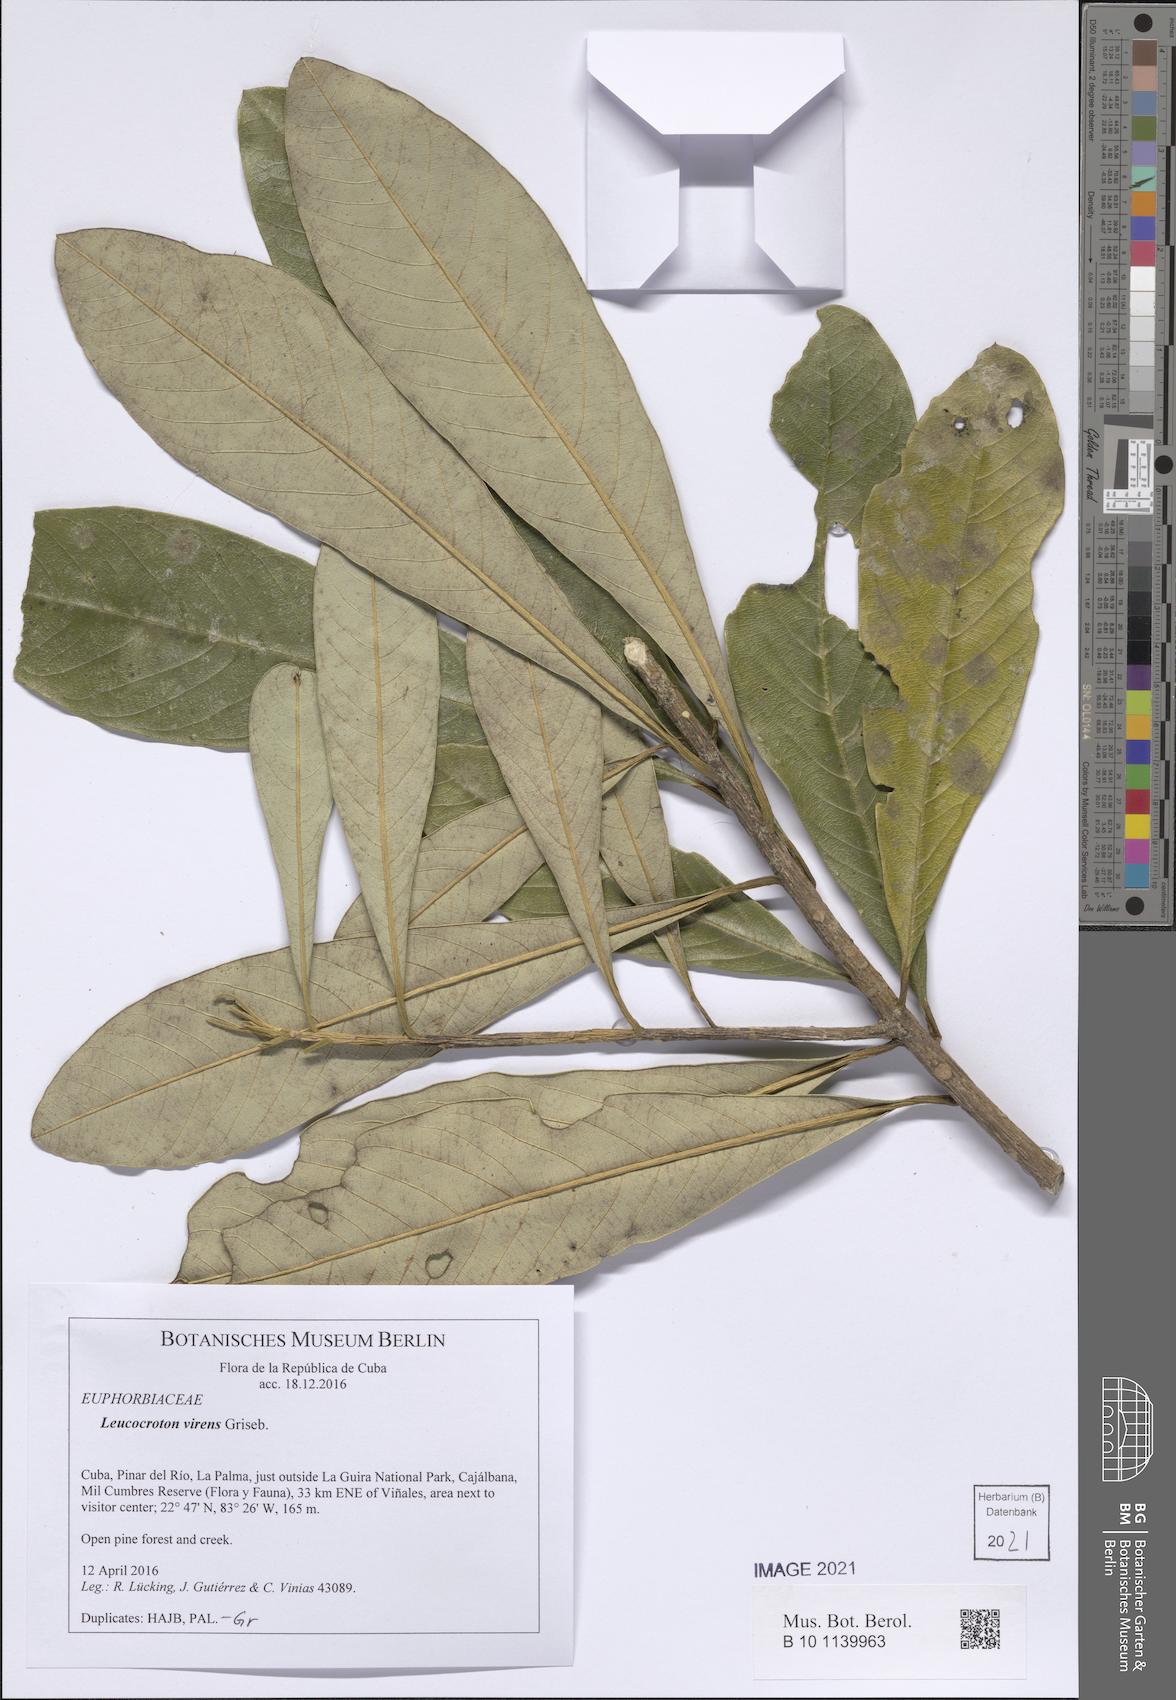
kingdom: Plantae
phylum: Tracheophyta
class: Magnoliopsida
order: Malpighiales
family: Euphorbiaceae
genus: Leucocroton
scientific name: Leucocroton flavicans
